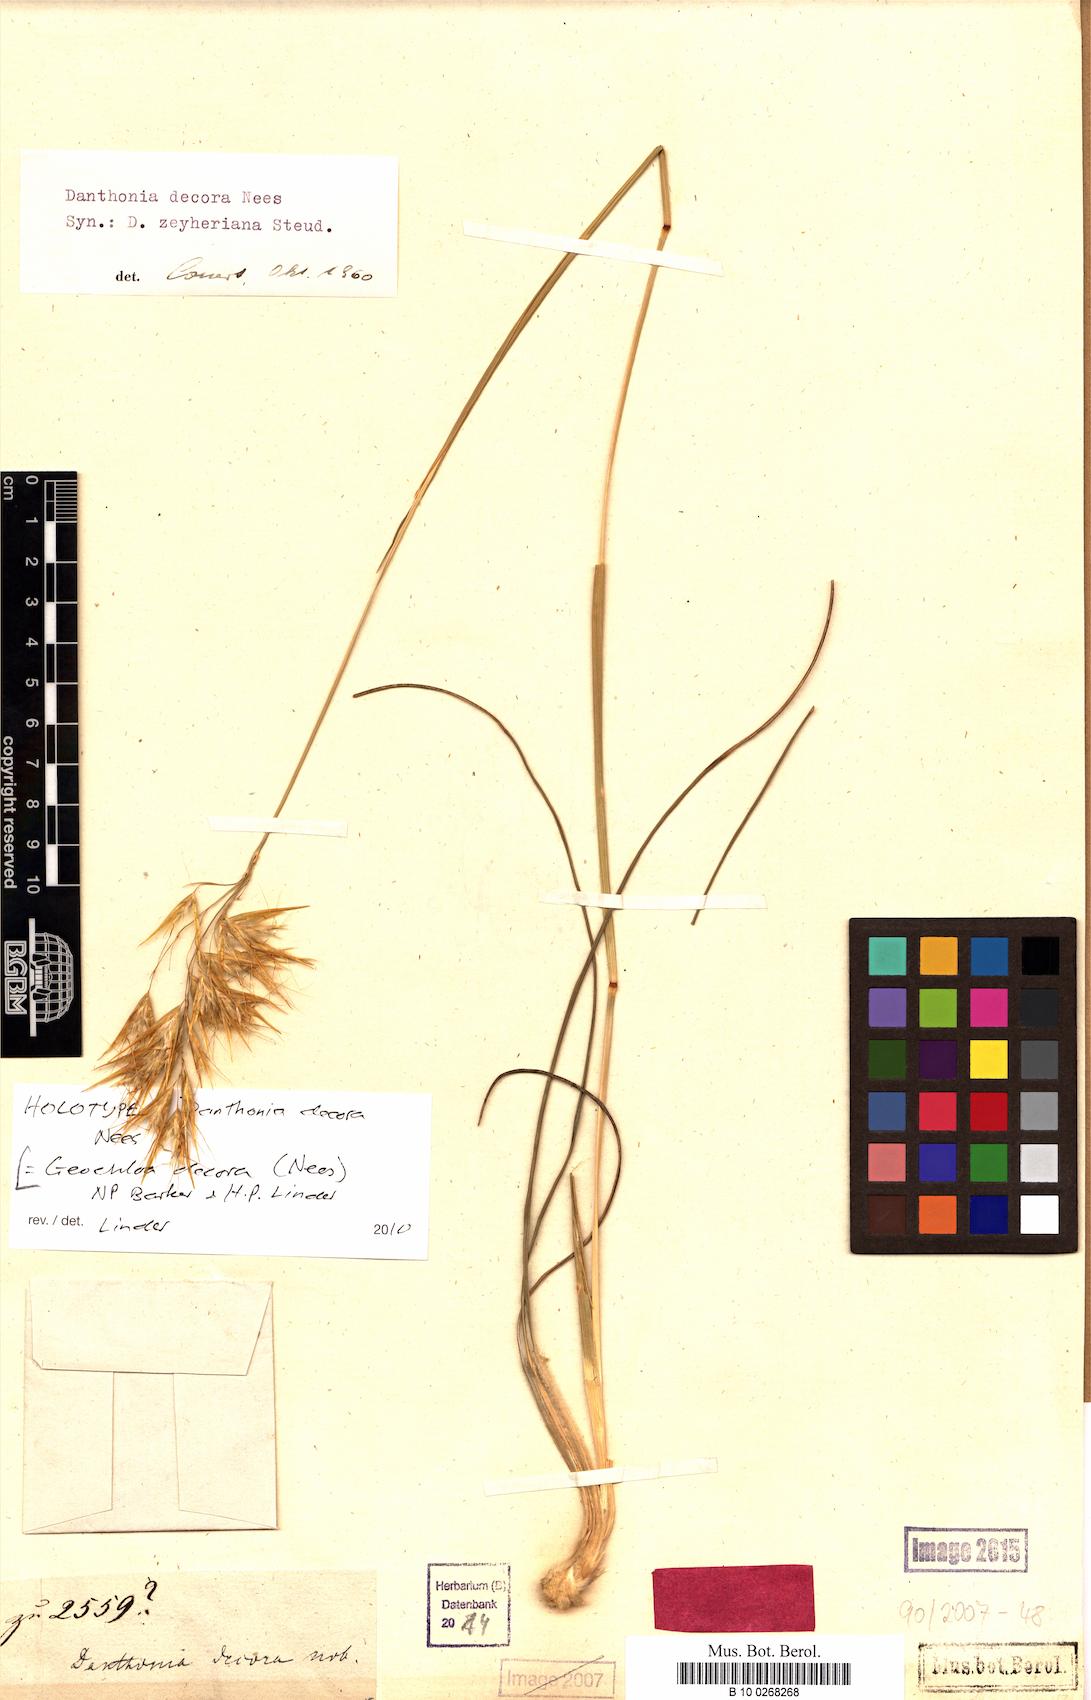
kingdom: Plantae
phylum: Tracheophyta
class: Liliopsida
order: Poales
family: Poaceae
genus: Geochloa
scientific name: Geochloa decora
